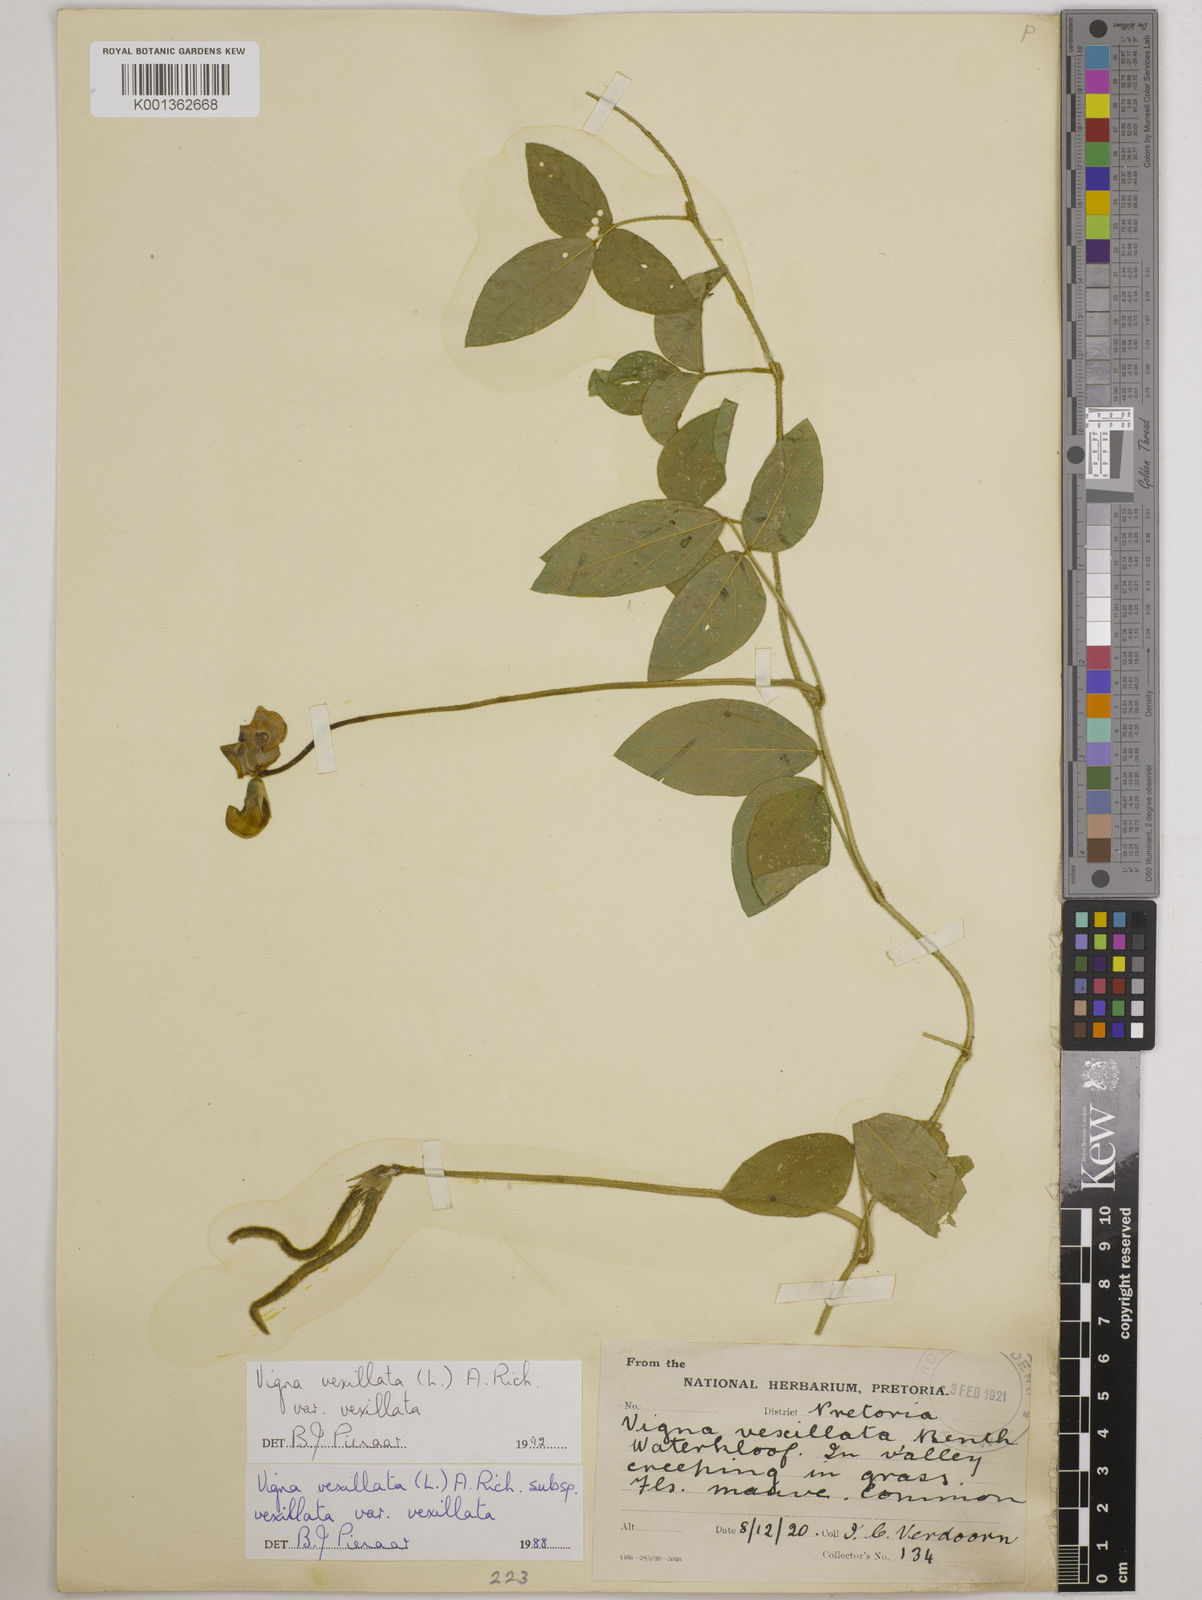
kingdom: Plantae
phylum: Tracheophyta
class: Magnoliopsida
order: Fabales
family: Fabaceae
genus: Vigna
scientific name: Vigna
